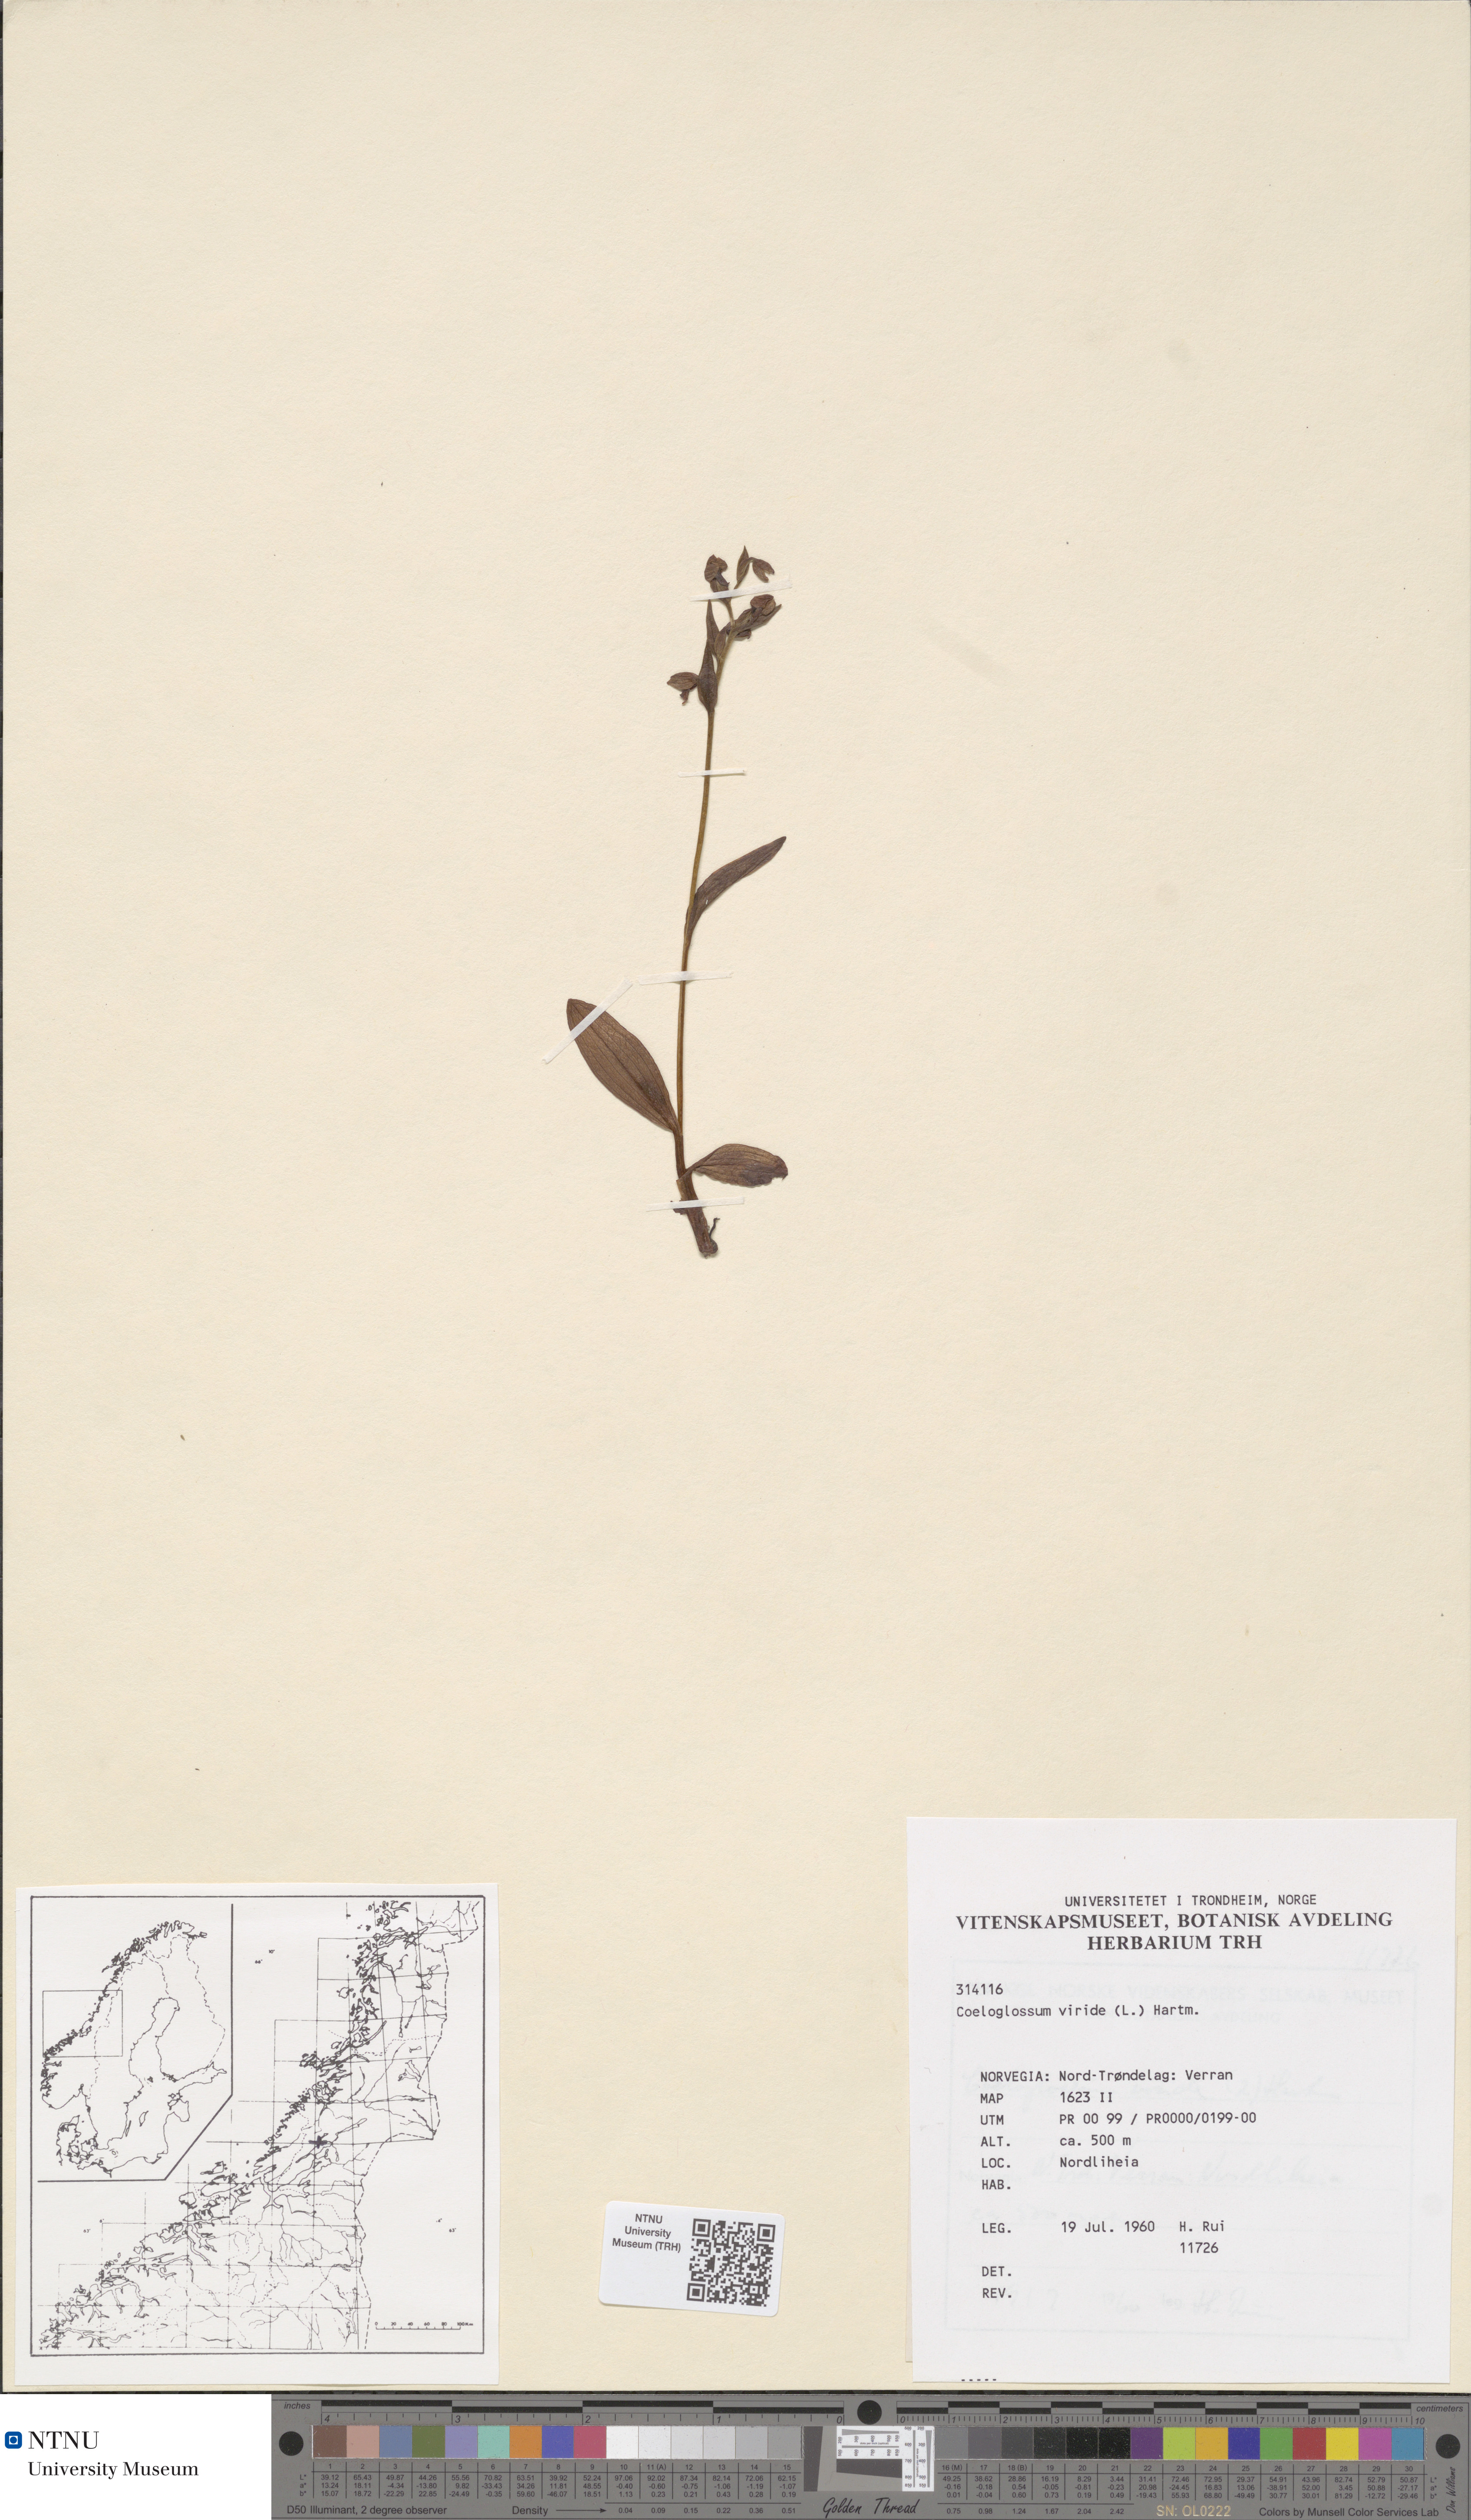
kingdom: Plantae
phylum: Tracheophyta
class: Liliopsida
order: Asparagales
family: Orchidaceae
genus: Dactylorhiza
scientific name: Dactylorhiza viridis
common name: Longbract frog orchid
